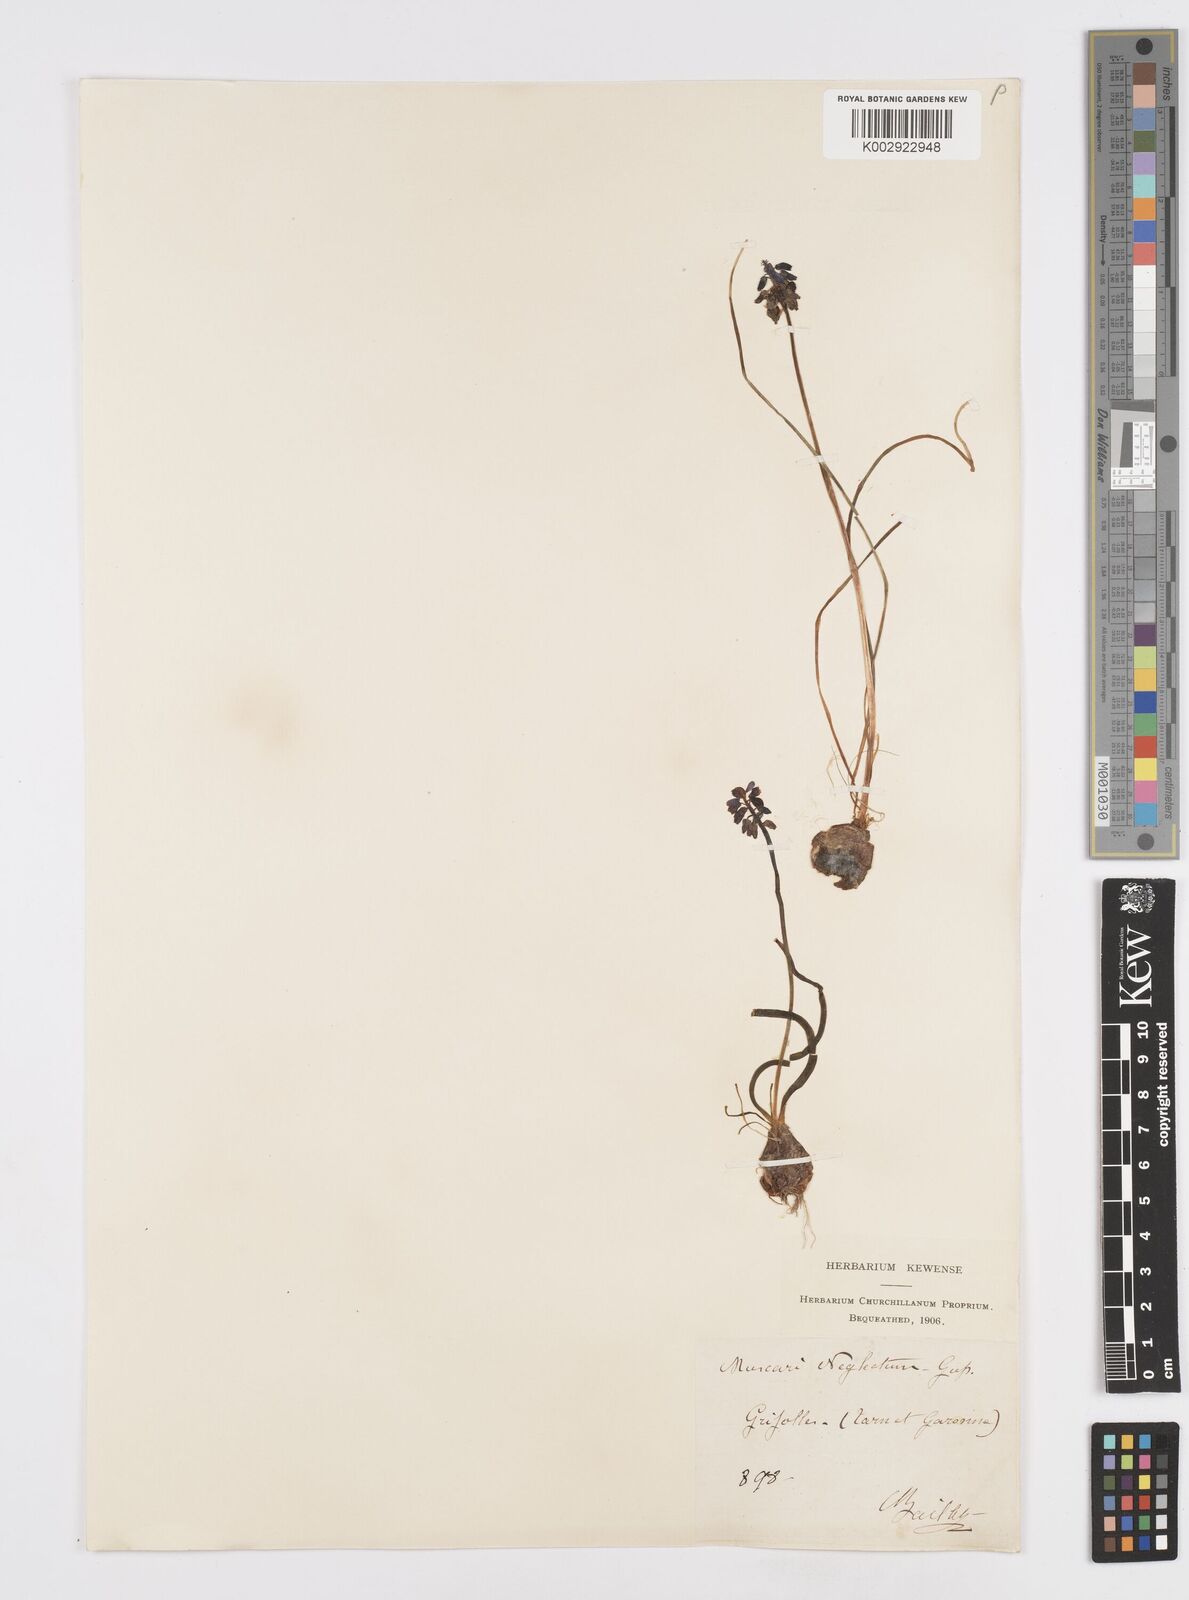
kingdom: Plantae
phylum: Tracheophyta
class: Liliopsida
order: Asparagales
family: Asparagaceae
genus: Muscari
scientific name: Muscari neglectum
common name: Grape-hyacinth
